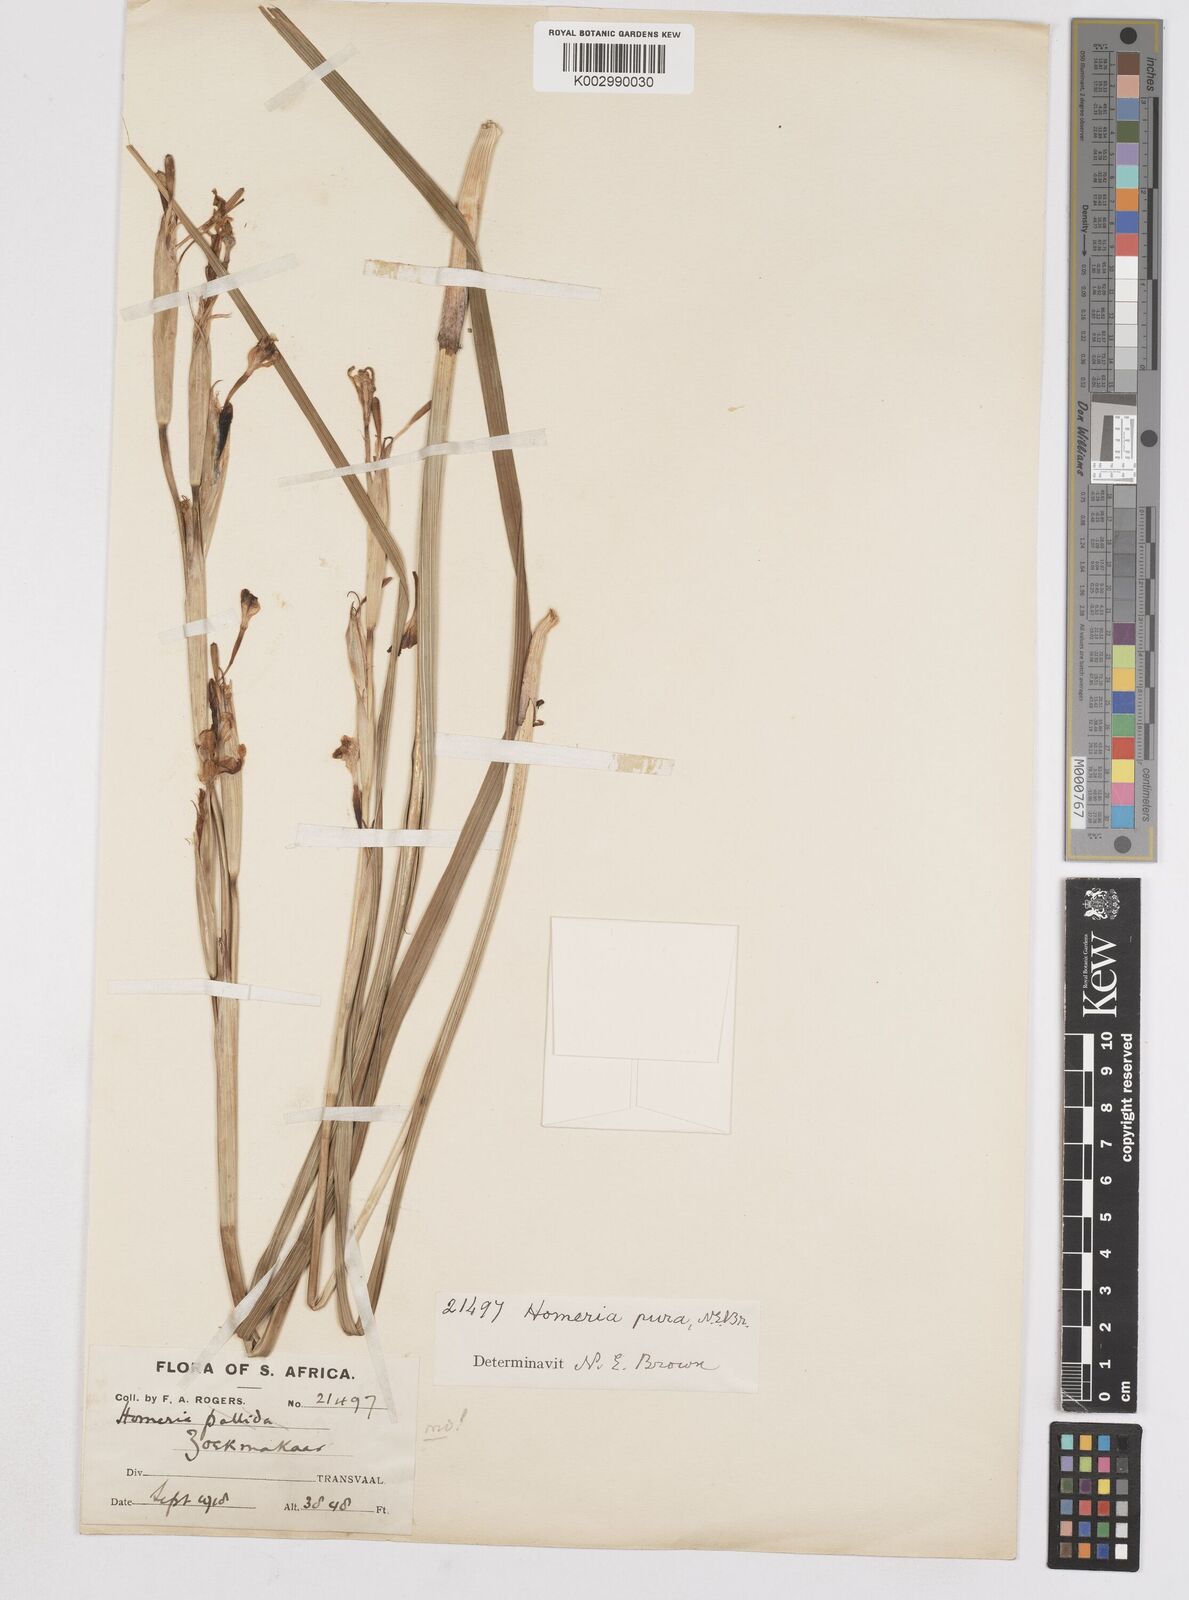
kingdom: Plantae
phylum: Tracheophyta
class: Liliopsida
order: Asparagales
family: Iridaceae
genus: Moraea
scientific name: Moraea pallida
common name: Yellow tulp
